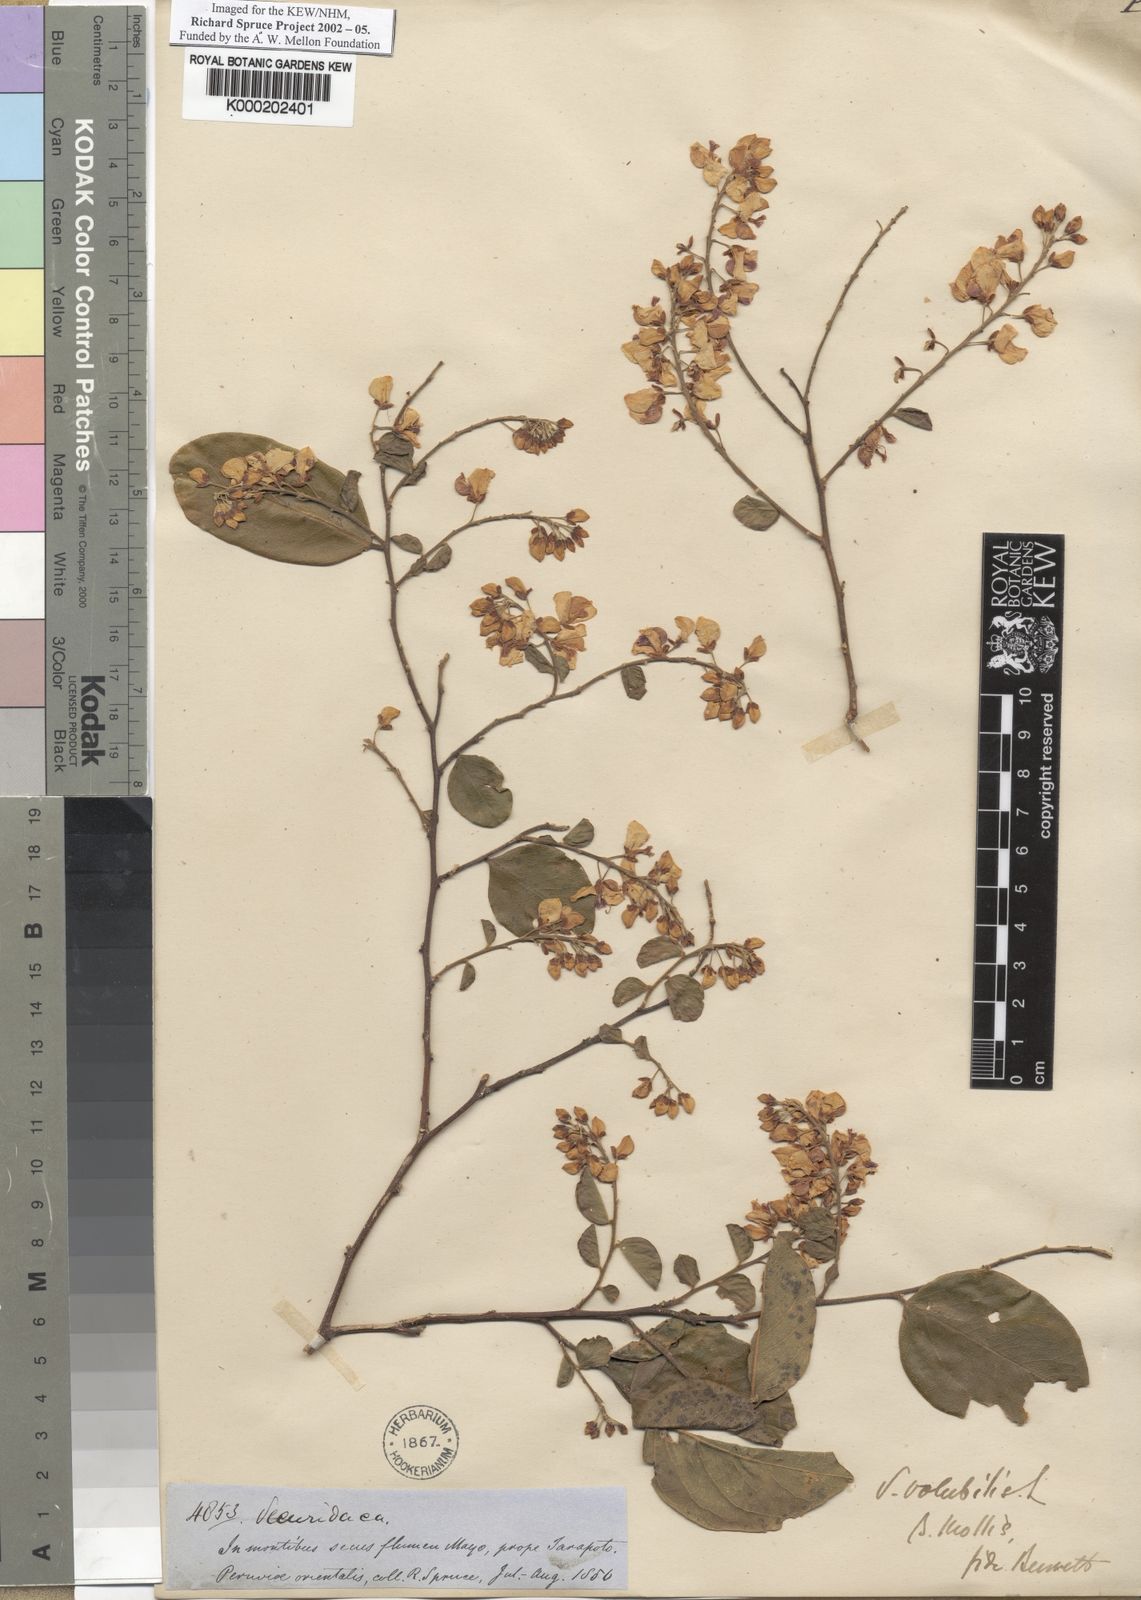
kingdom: Plantae
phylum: Tracheophyta
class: Magnoliopsida
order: Fabales
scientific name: Fabales
